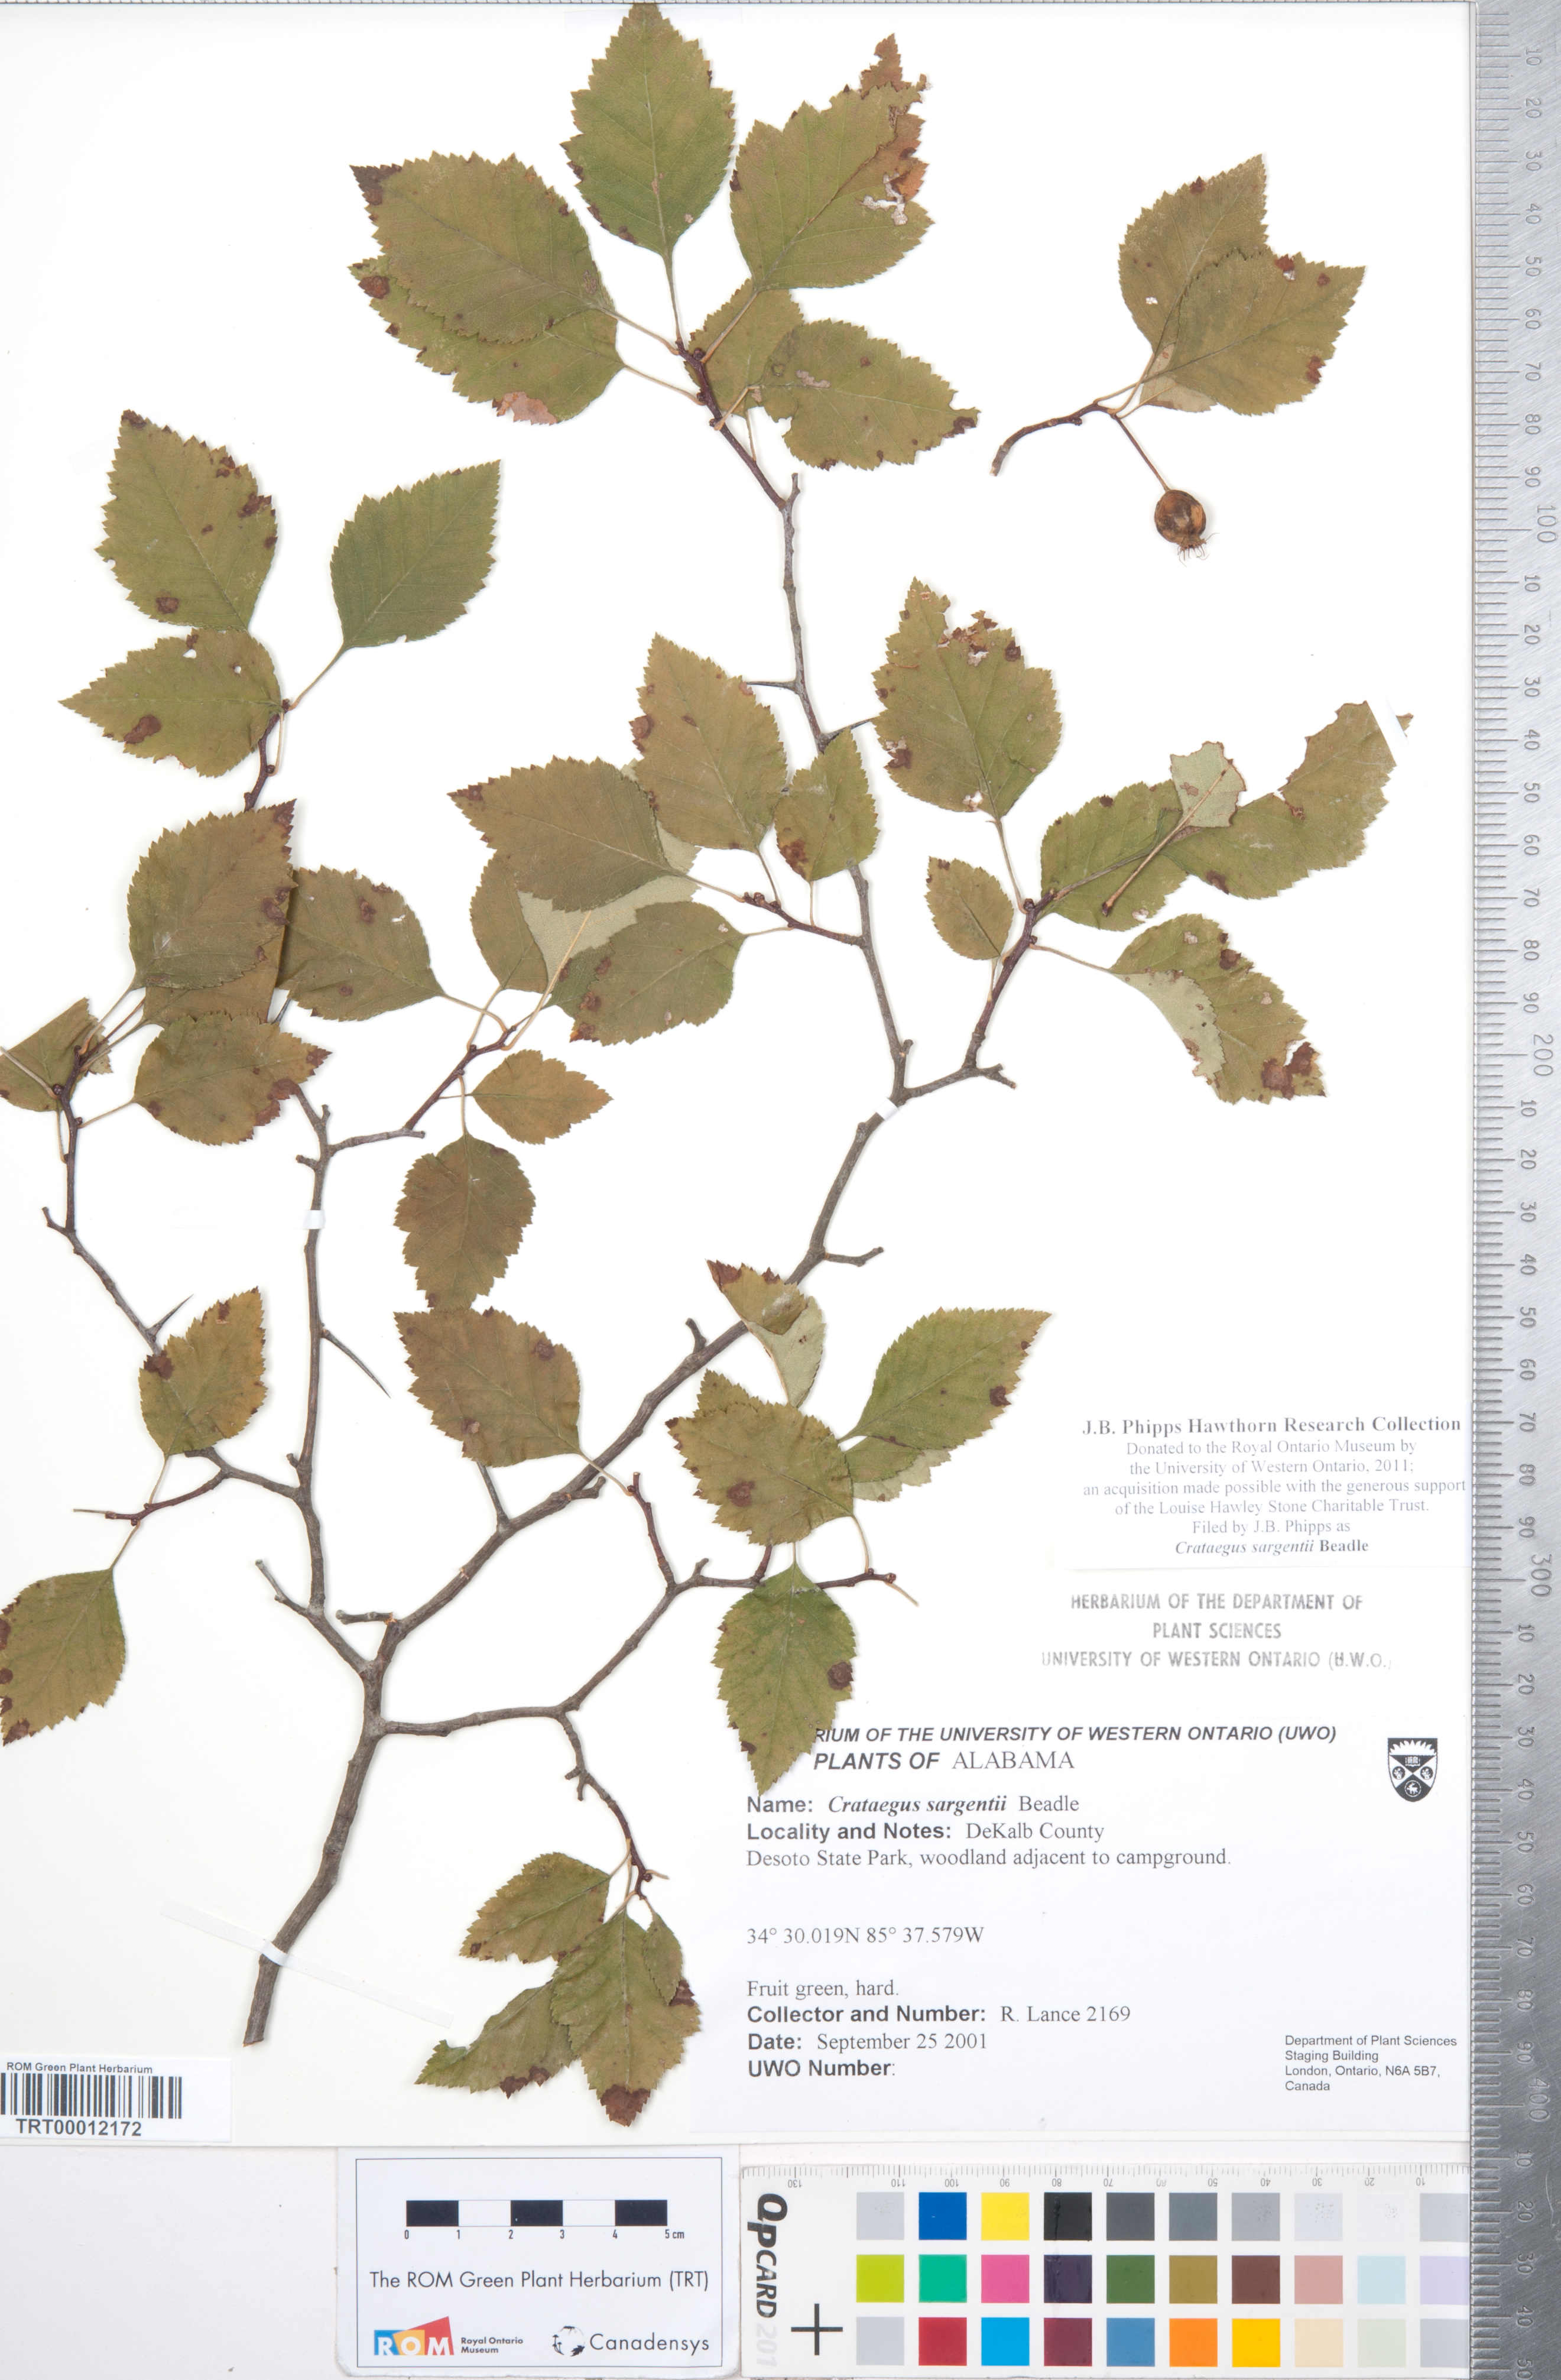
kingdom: Plantae
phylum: Tracheophyta
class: Magnoliopsida
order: Rosales
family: Rosaceae
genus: Crataegus
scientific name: Crataegus sargentii
